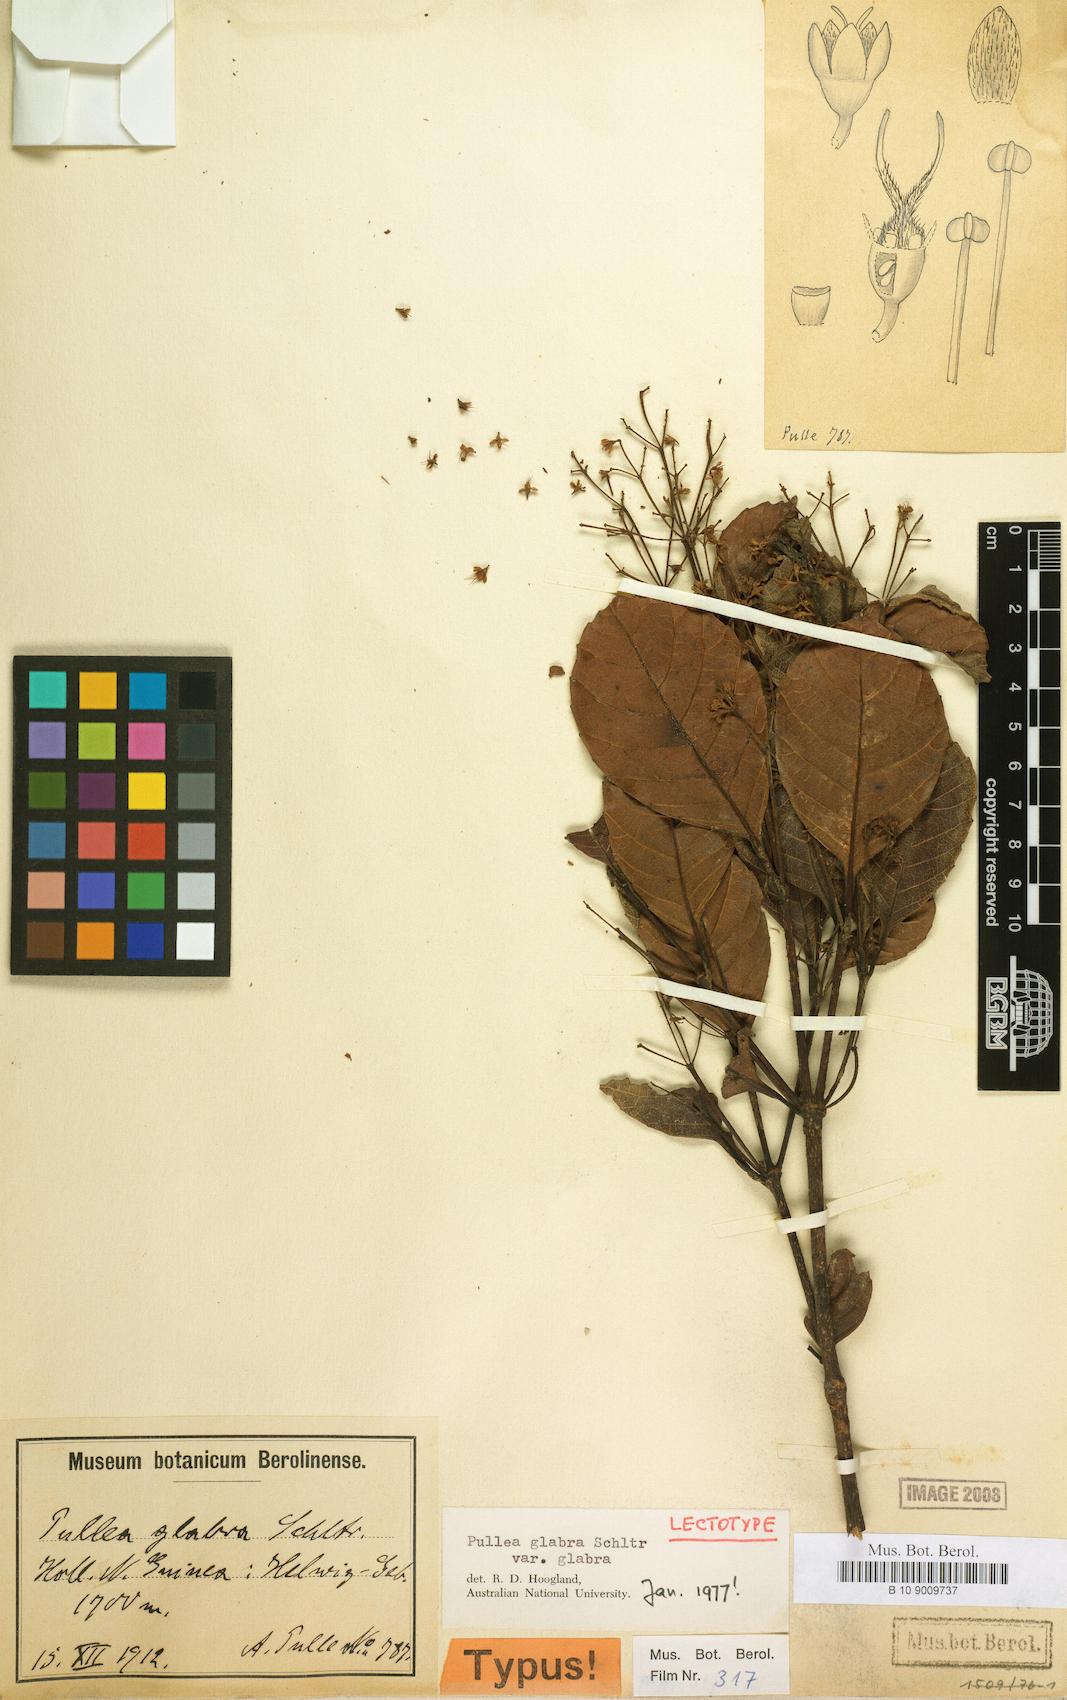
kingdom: Plantae
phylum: Tracheophyta
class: Magnoliopsida
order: Oxalidales
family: Cunoniaceae
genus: Pullea
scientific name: Pullea glabra
